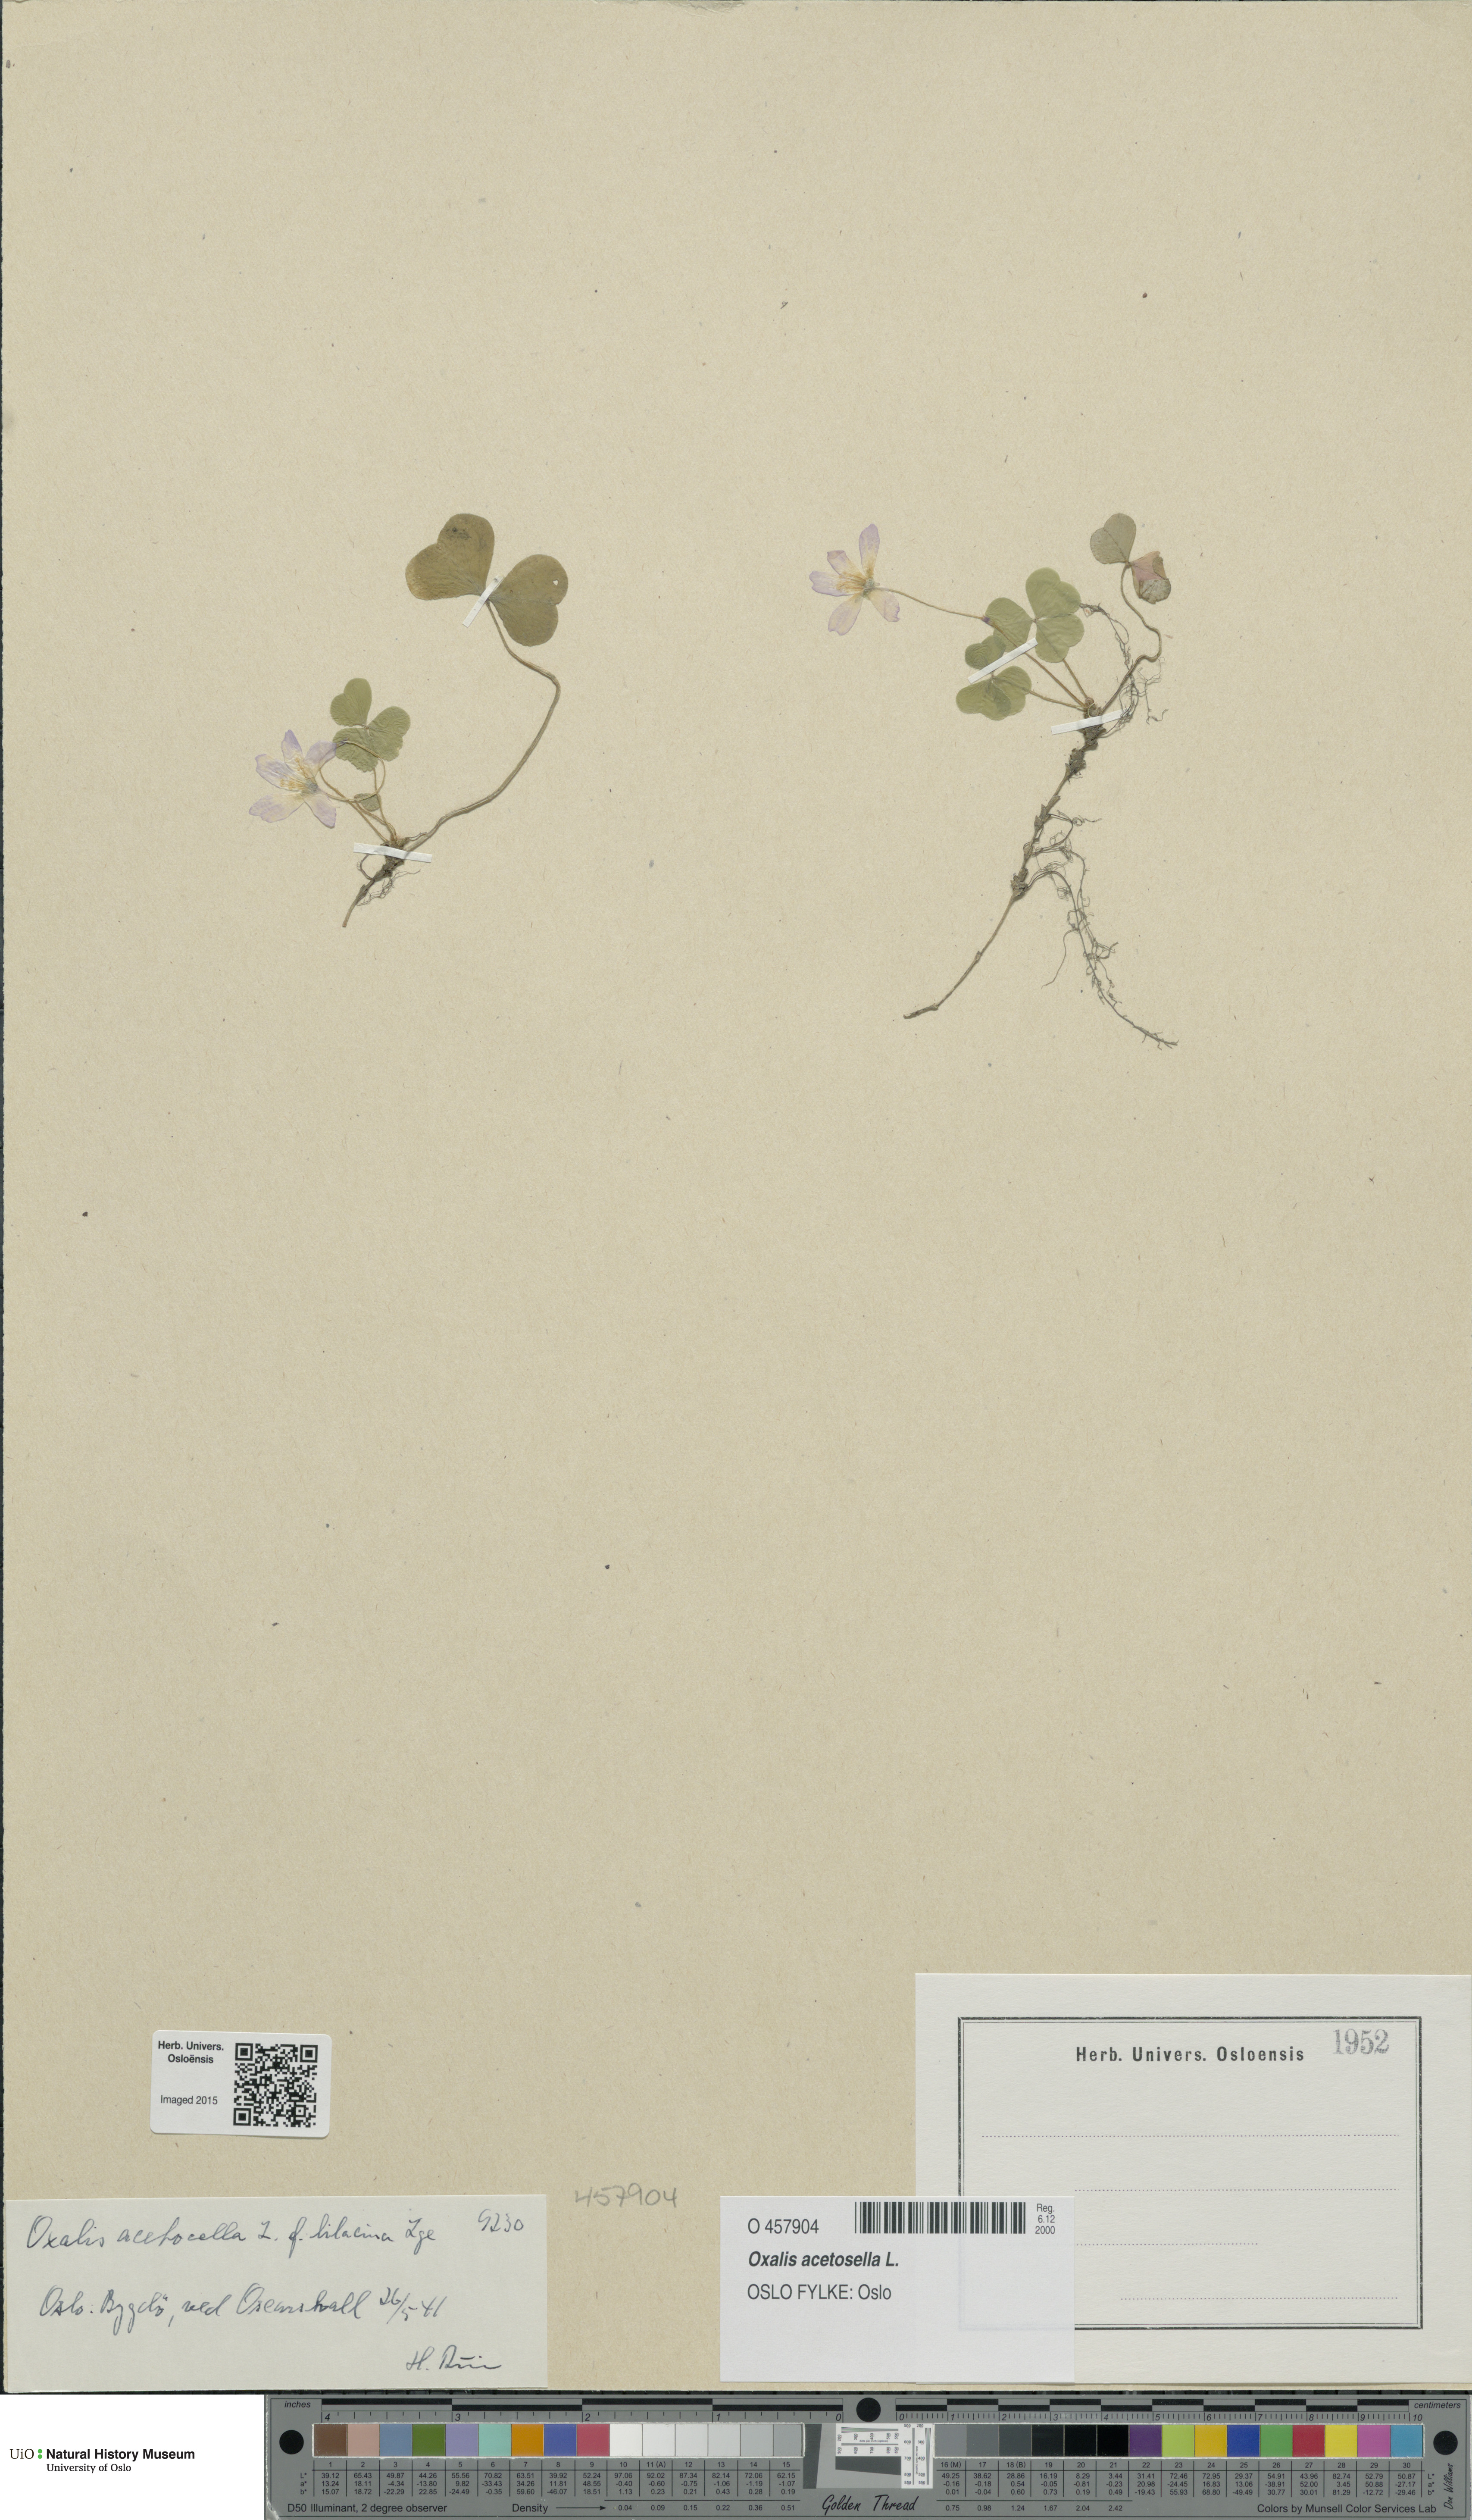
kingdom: Plantae
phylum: Tracheophyta
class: Magnoliopsida
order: Oxalidales
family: Oxalidaceae
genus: Oxalis
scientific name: Oxalis acetosella
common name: Wood-sorrel
